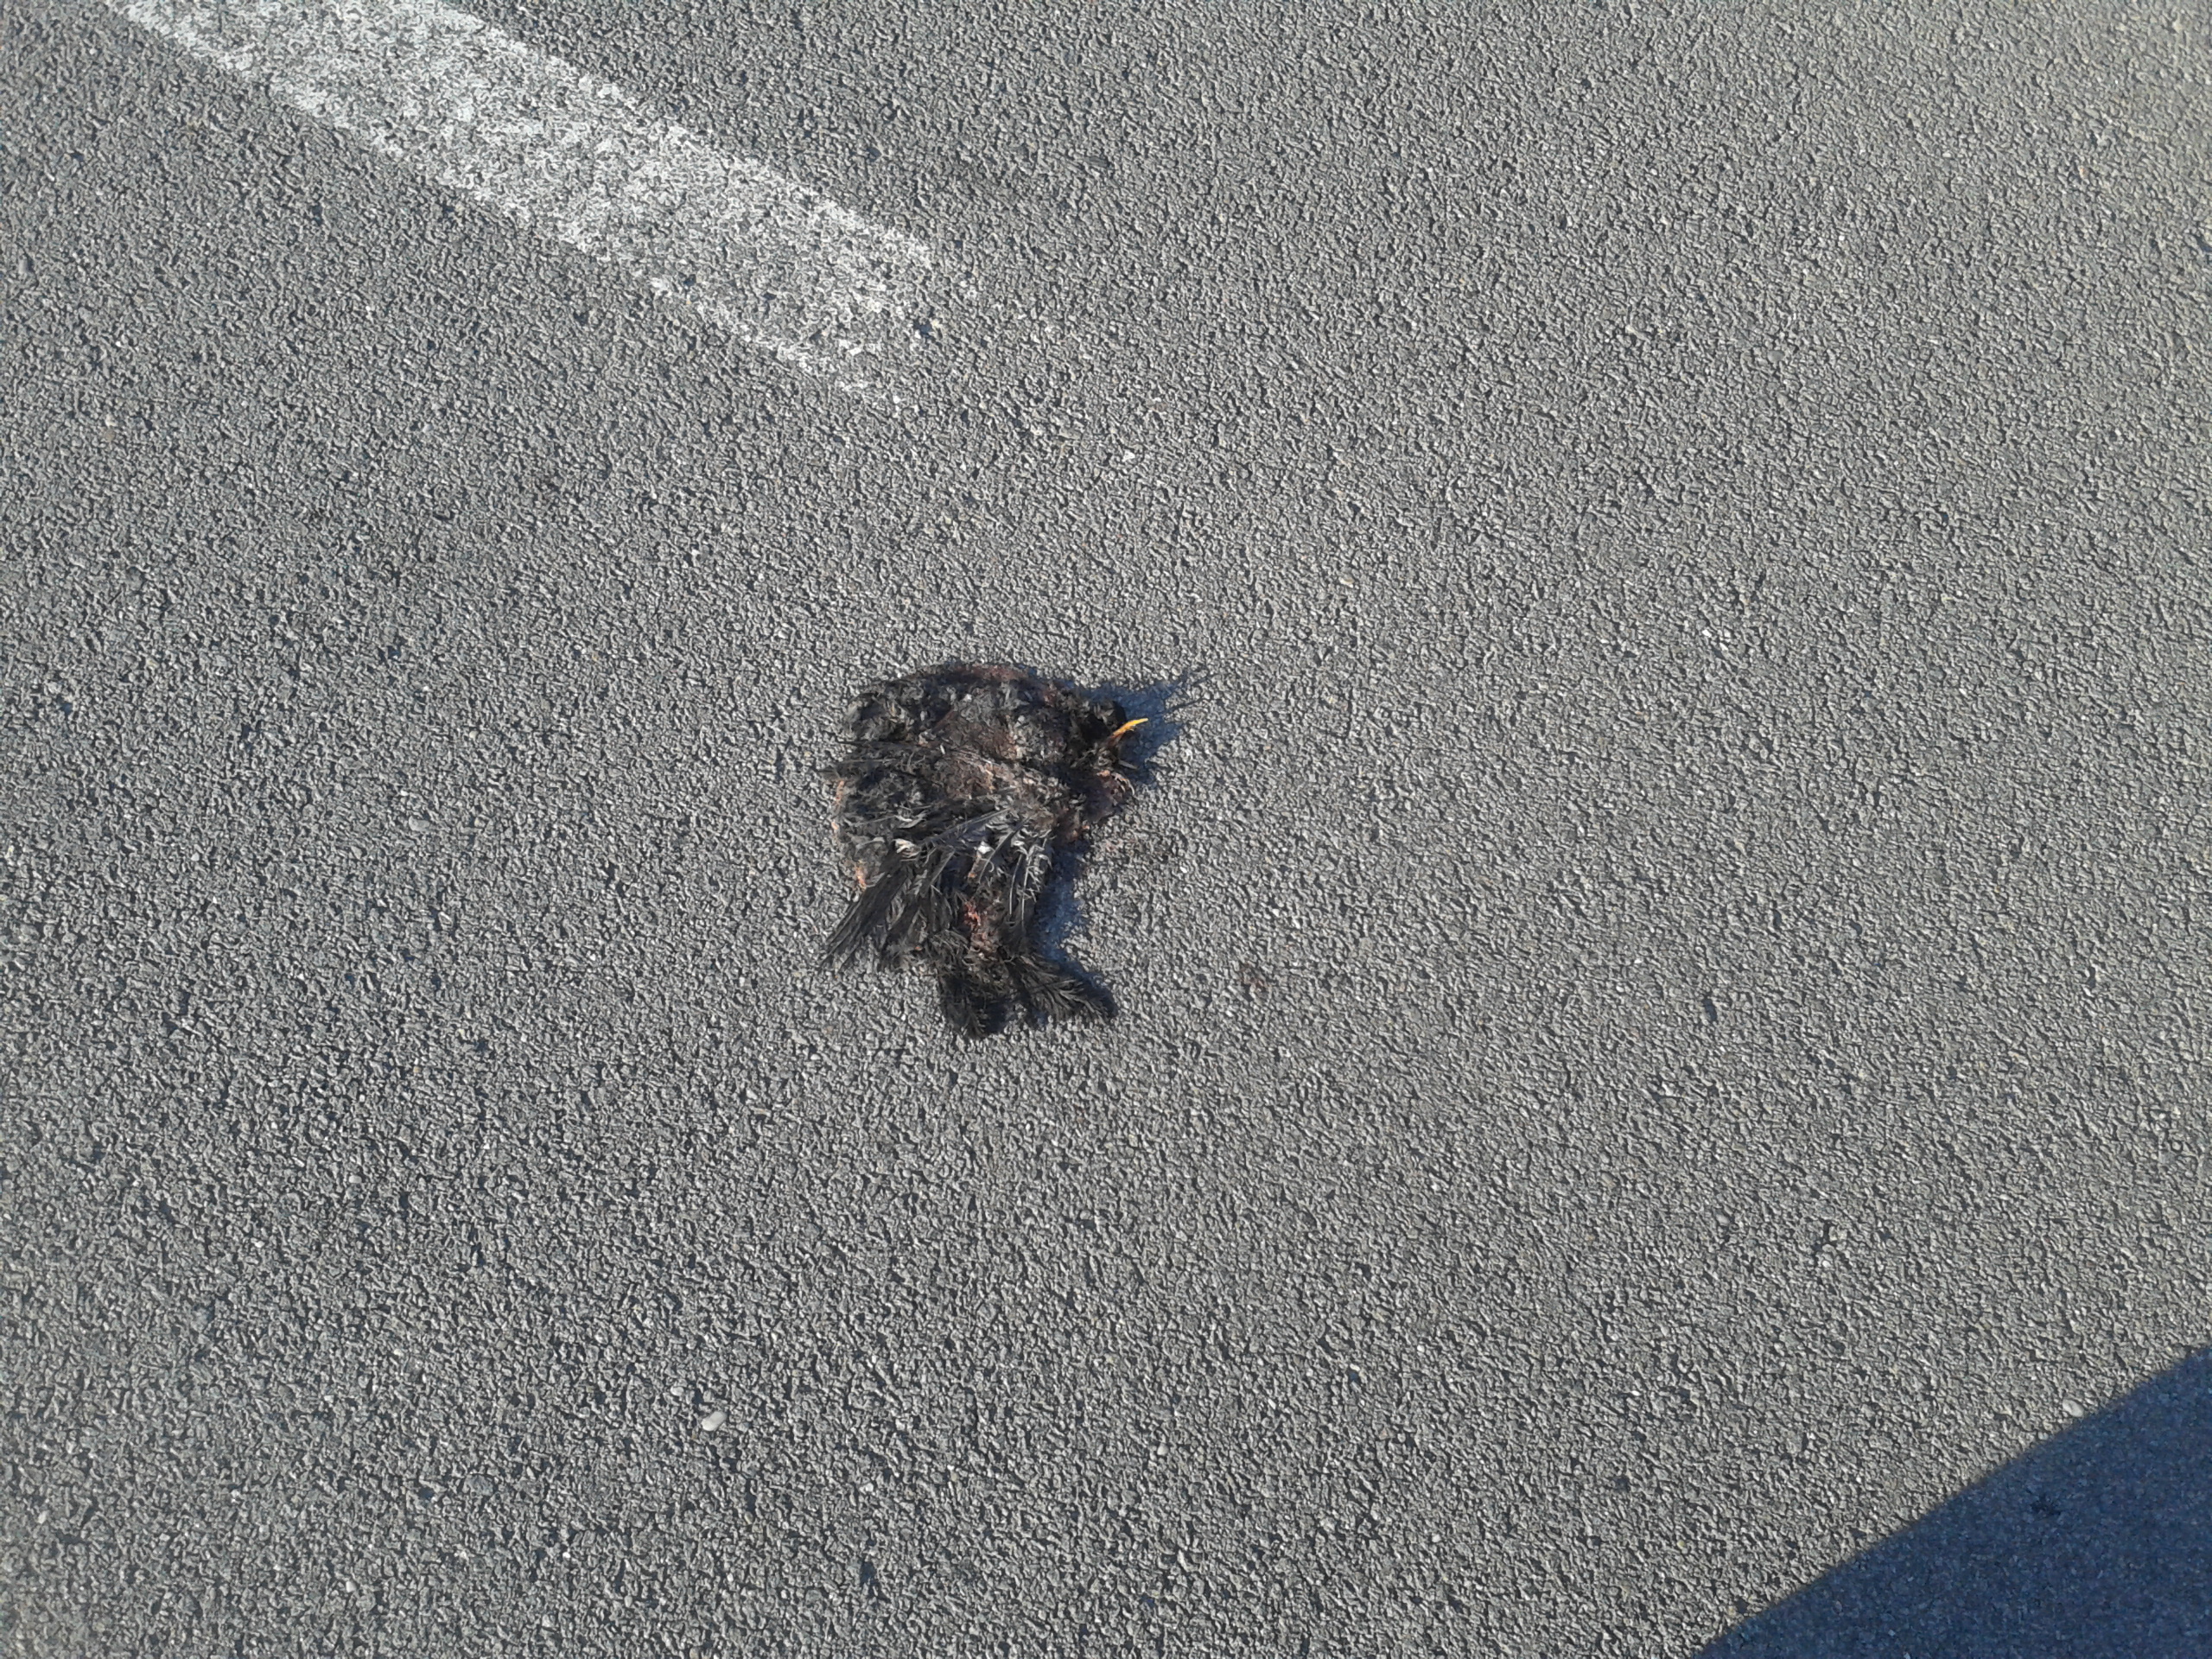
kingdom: Animalia
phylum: Chordata
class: Aves
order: Passeriformes
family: Turdidae
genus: Turdus
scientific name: Turdus merula
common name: Common blackbird
